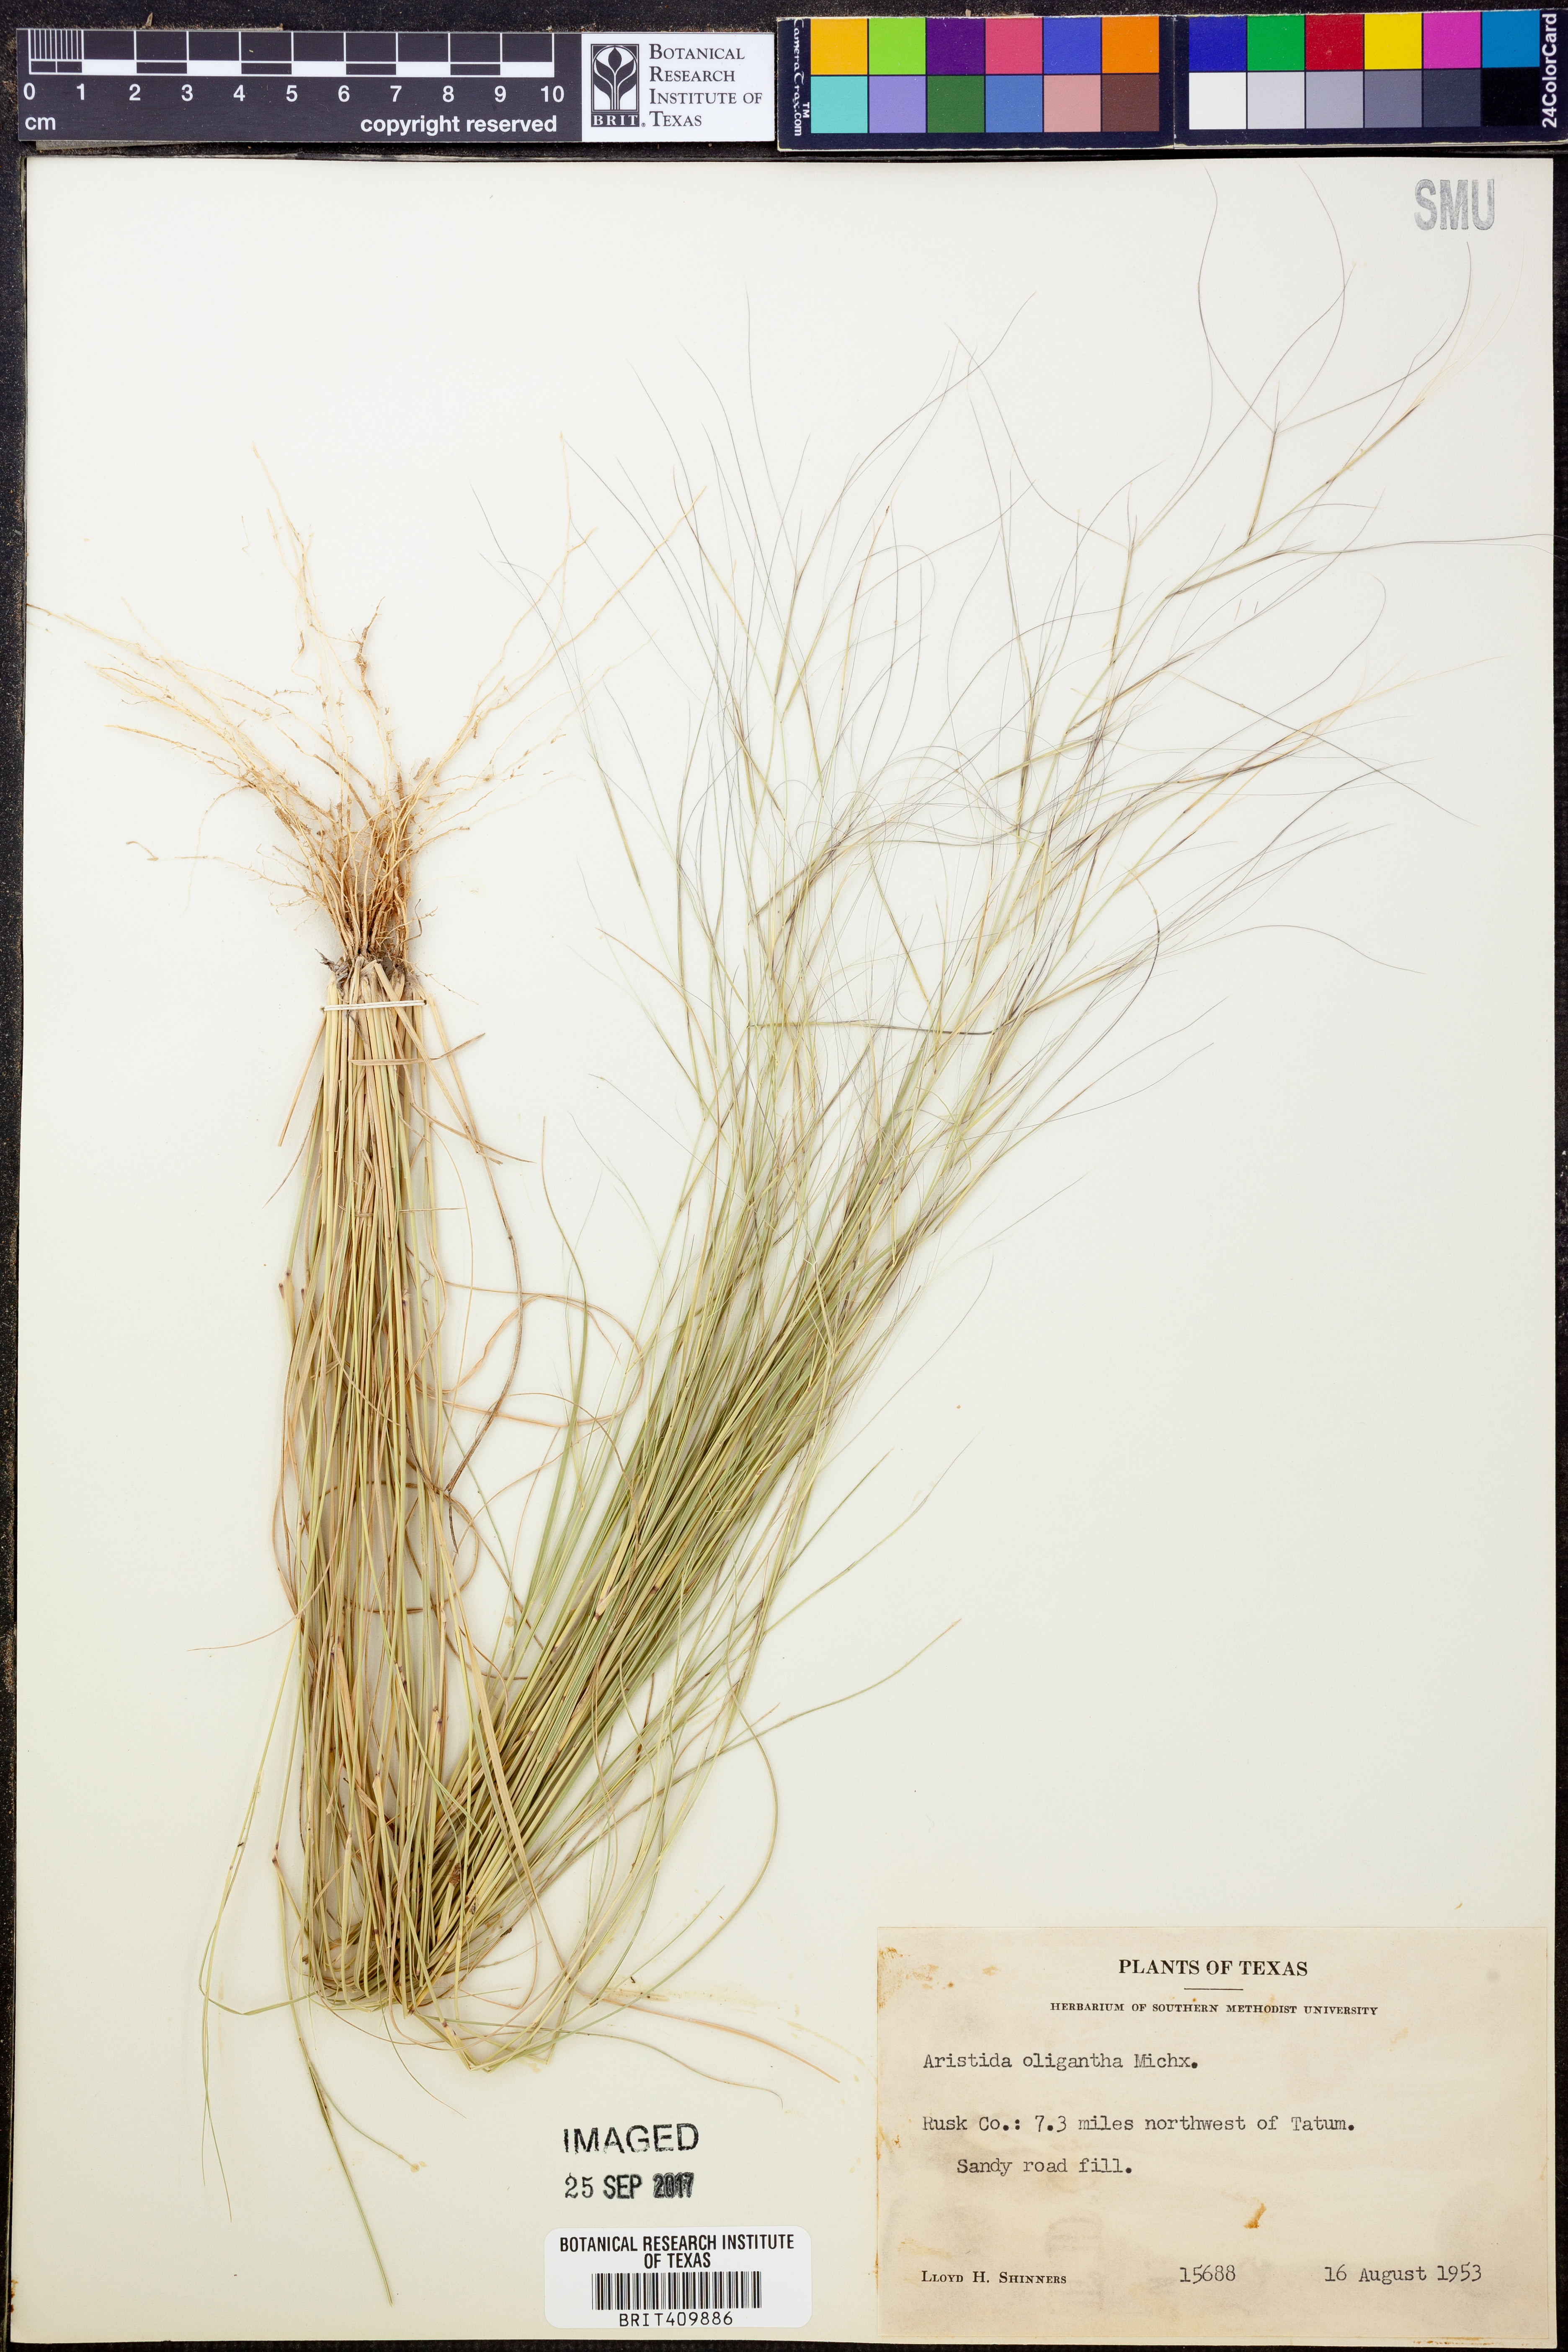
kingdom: Plantae
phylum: Tracheophyta
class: Liliopsida
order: Poales
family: Poaceae
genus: Aristida
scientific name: Aristida oligantha
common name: Few-flowered aristida
